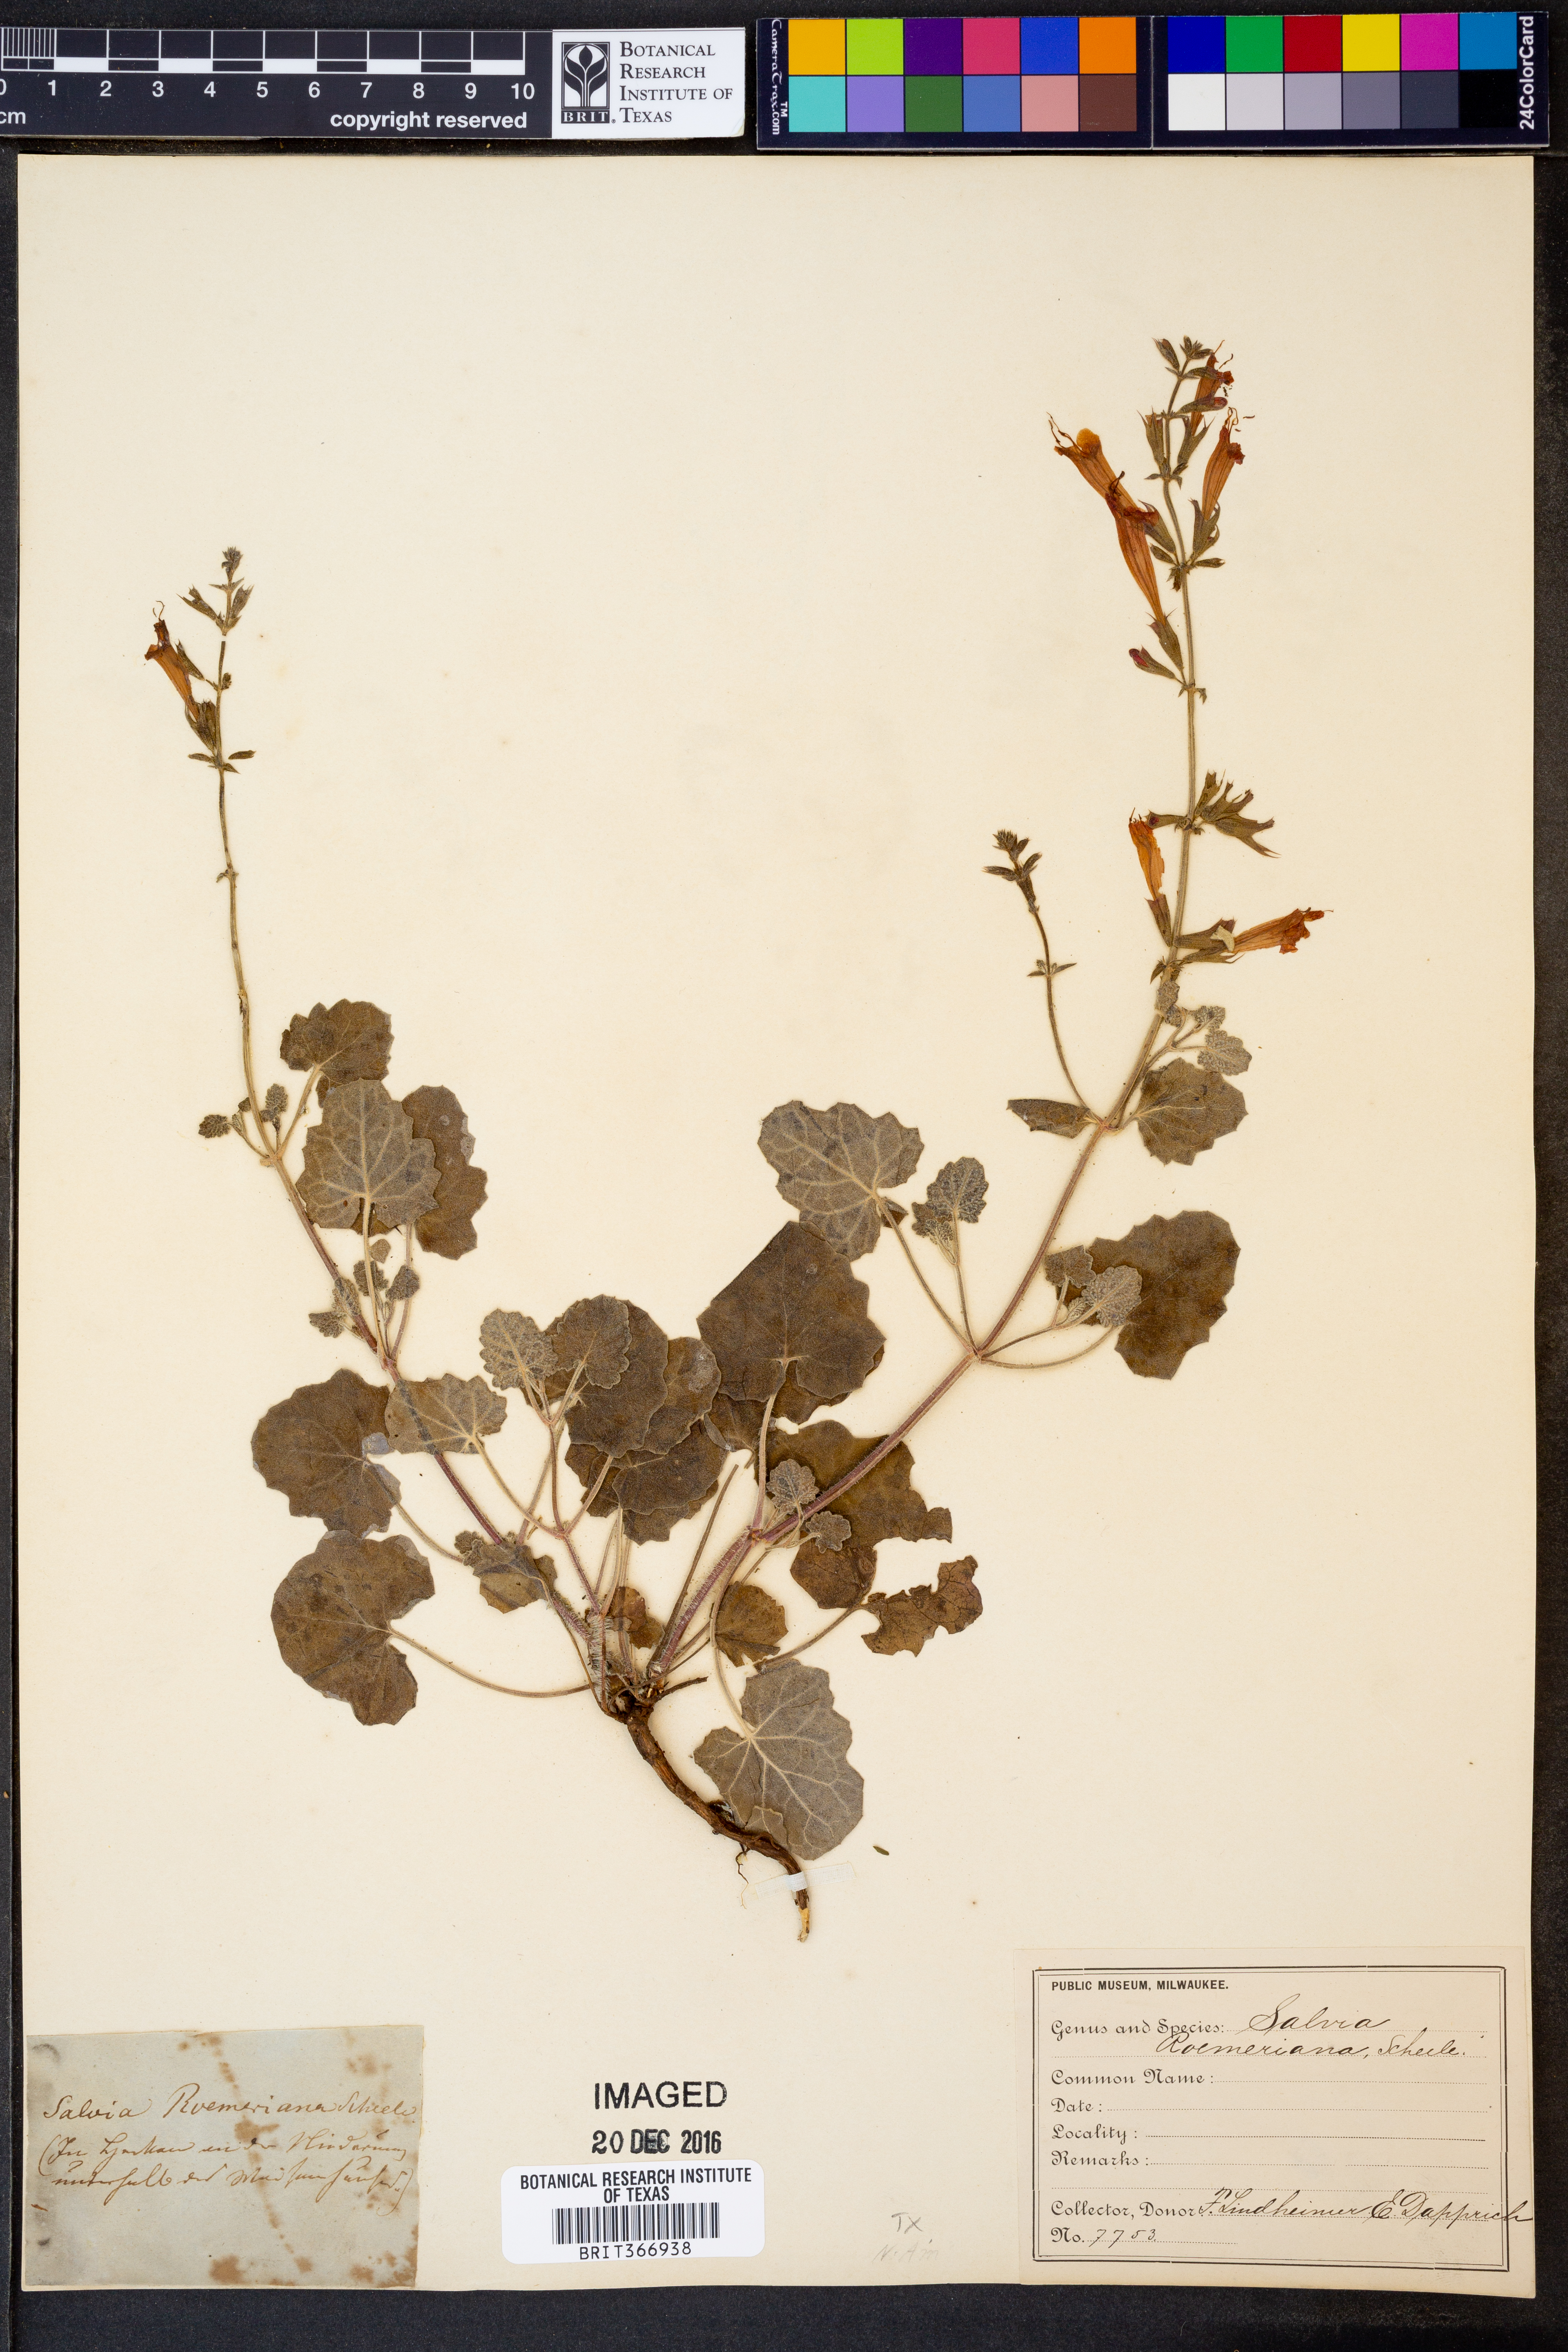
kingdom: Plantae
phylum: Tracheophyta
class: Magnoliopsida
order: Lamiales
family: Lamiaceae
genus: Salvia
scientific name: Salvia roemeriana
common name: Cedar sage
